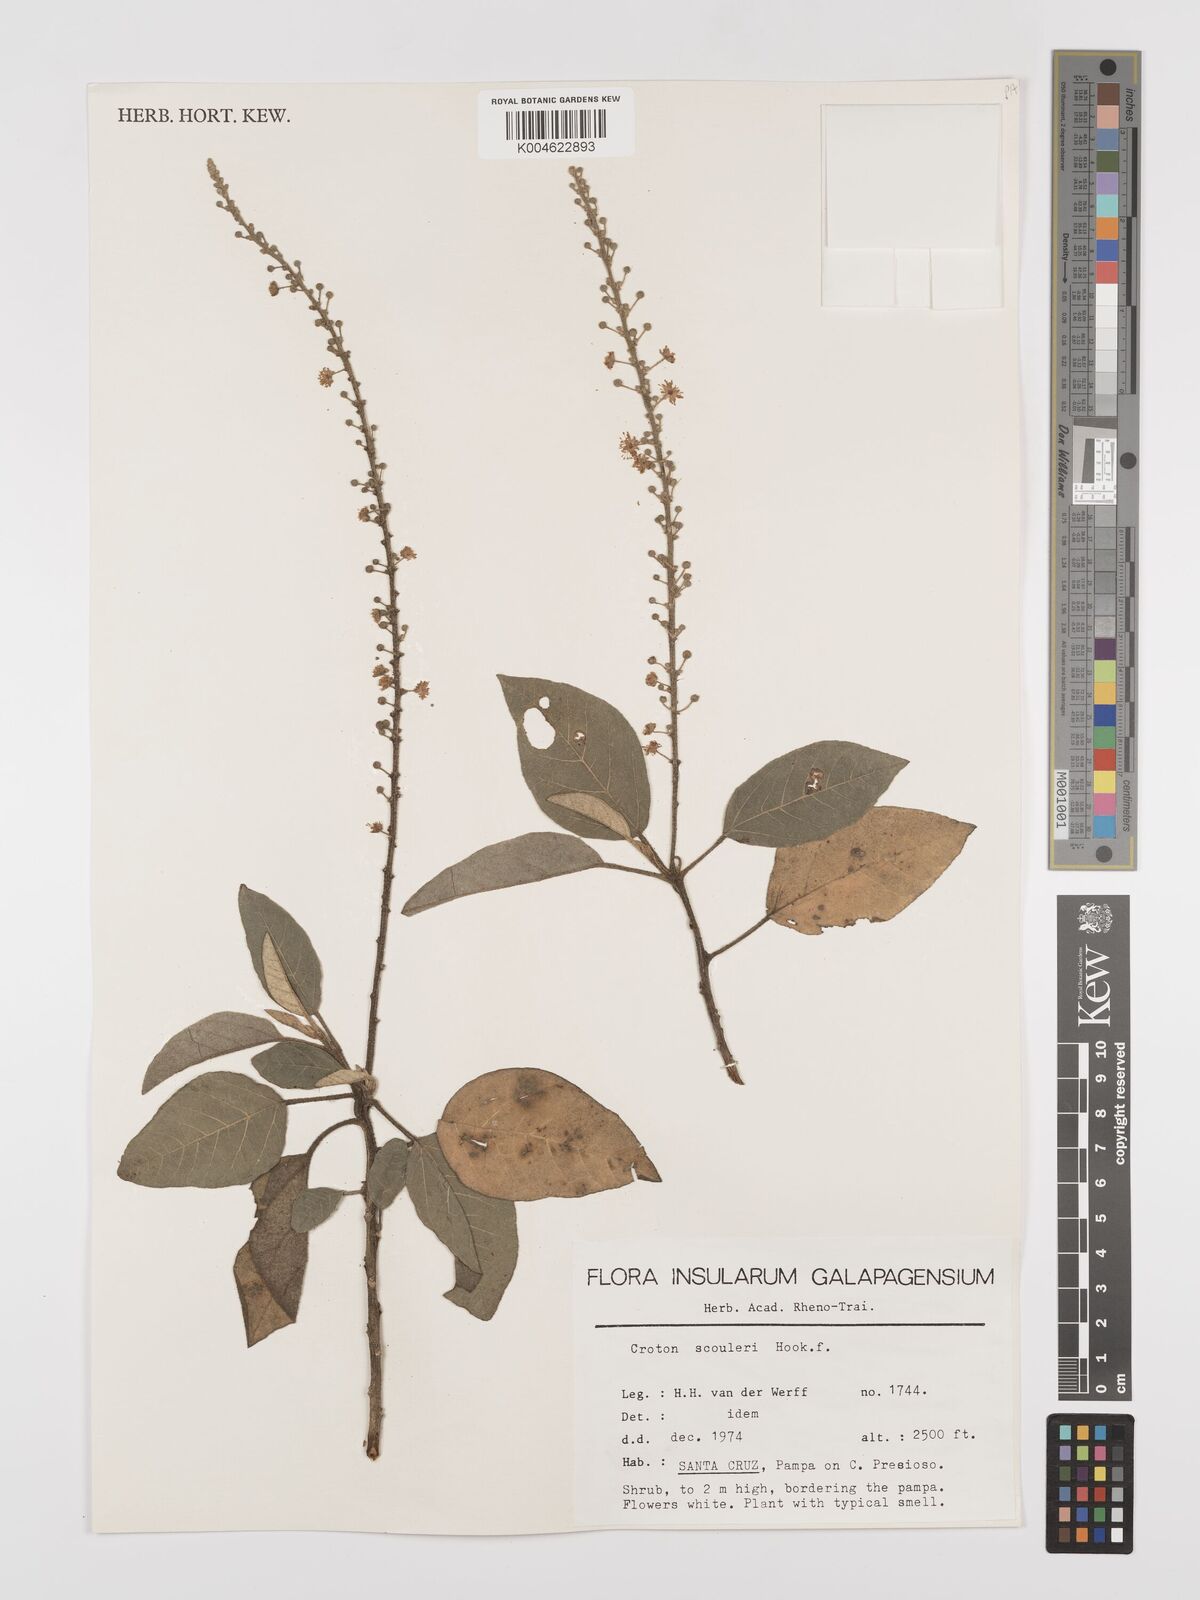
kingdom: Plantae
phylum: Tracheophyta
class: Magnoliopsida
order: Malpighiales
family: Euphorbiaceae
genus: Croton
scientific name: Croton scouleri
